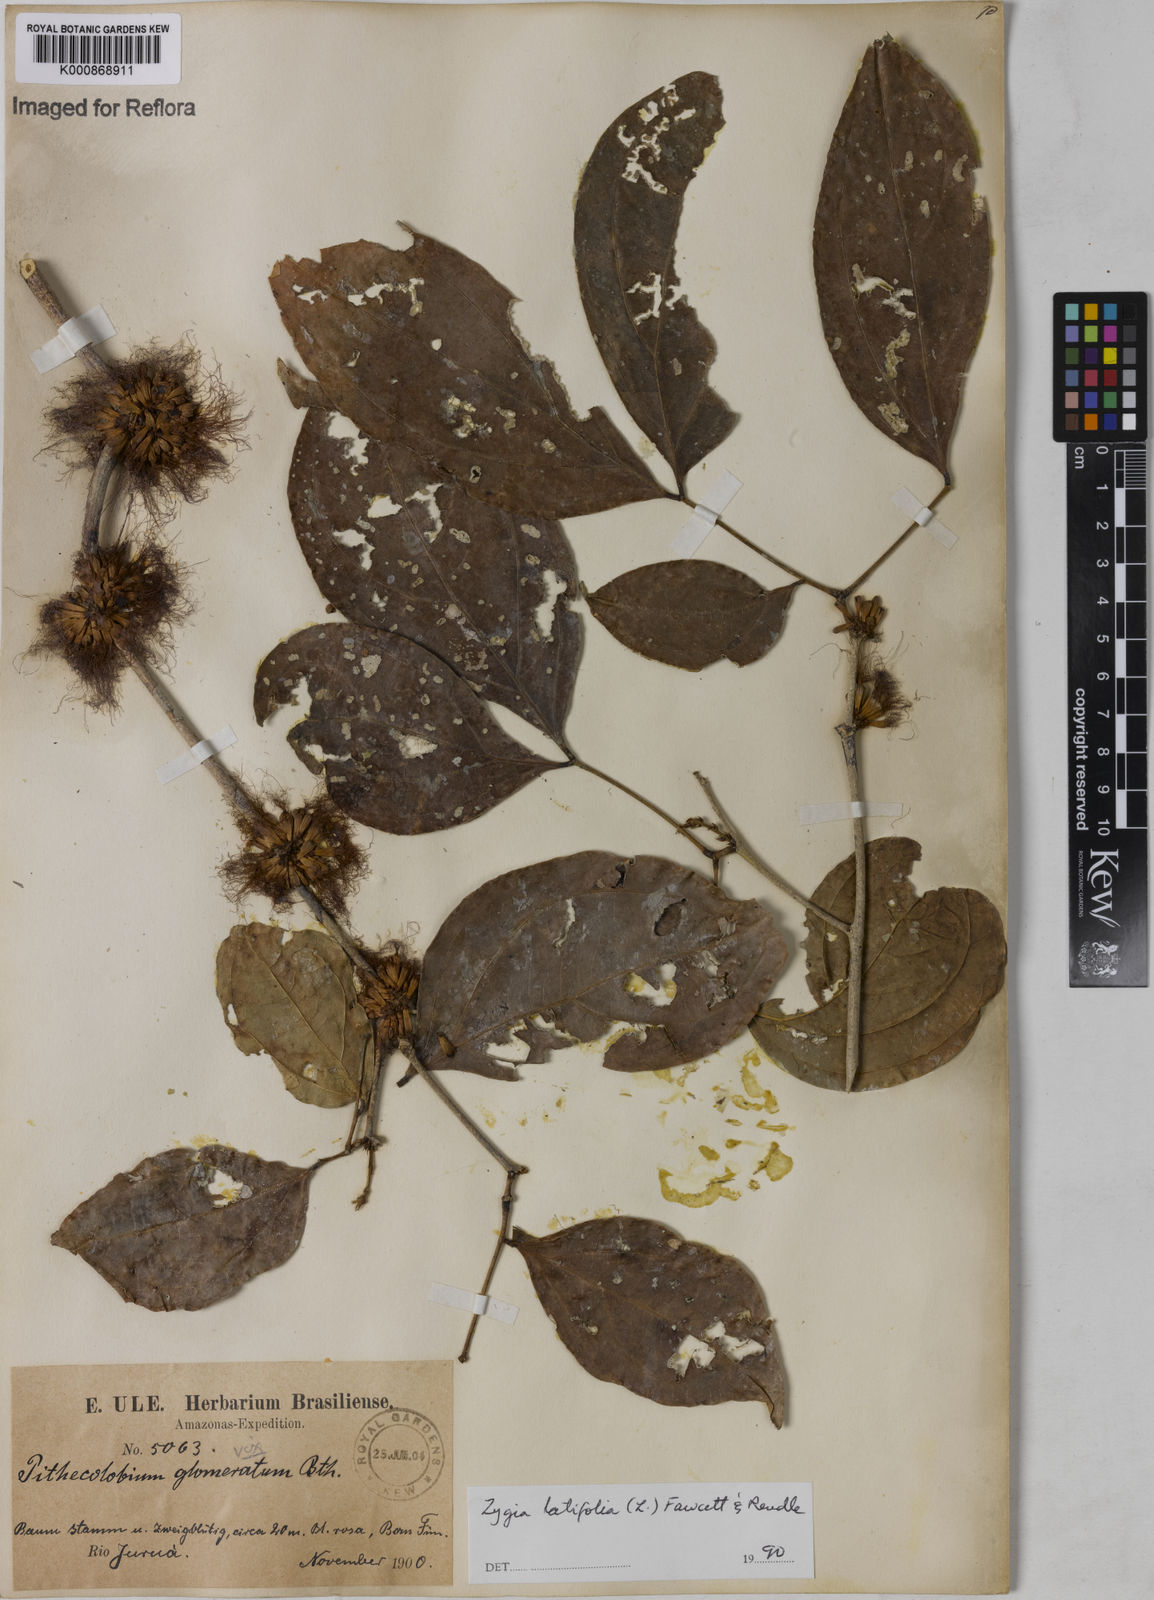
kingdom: Plantae
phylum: Tracheophyta
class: Magnoliopsida
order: Fabales
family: Fabaceae
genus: Zygia
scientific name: Zygia latifolia
